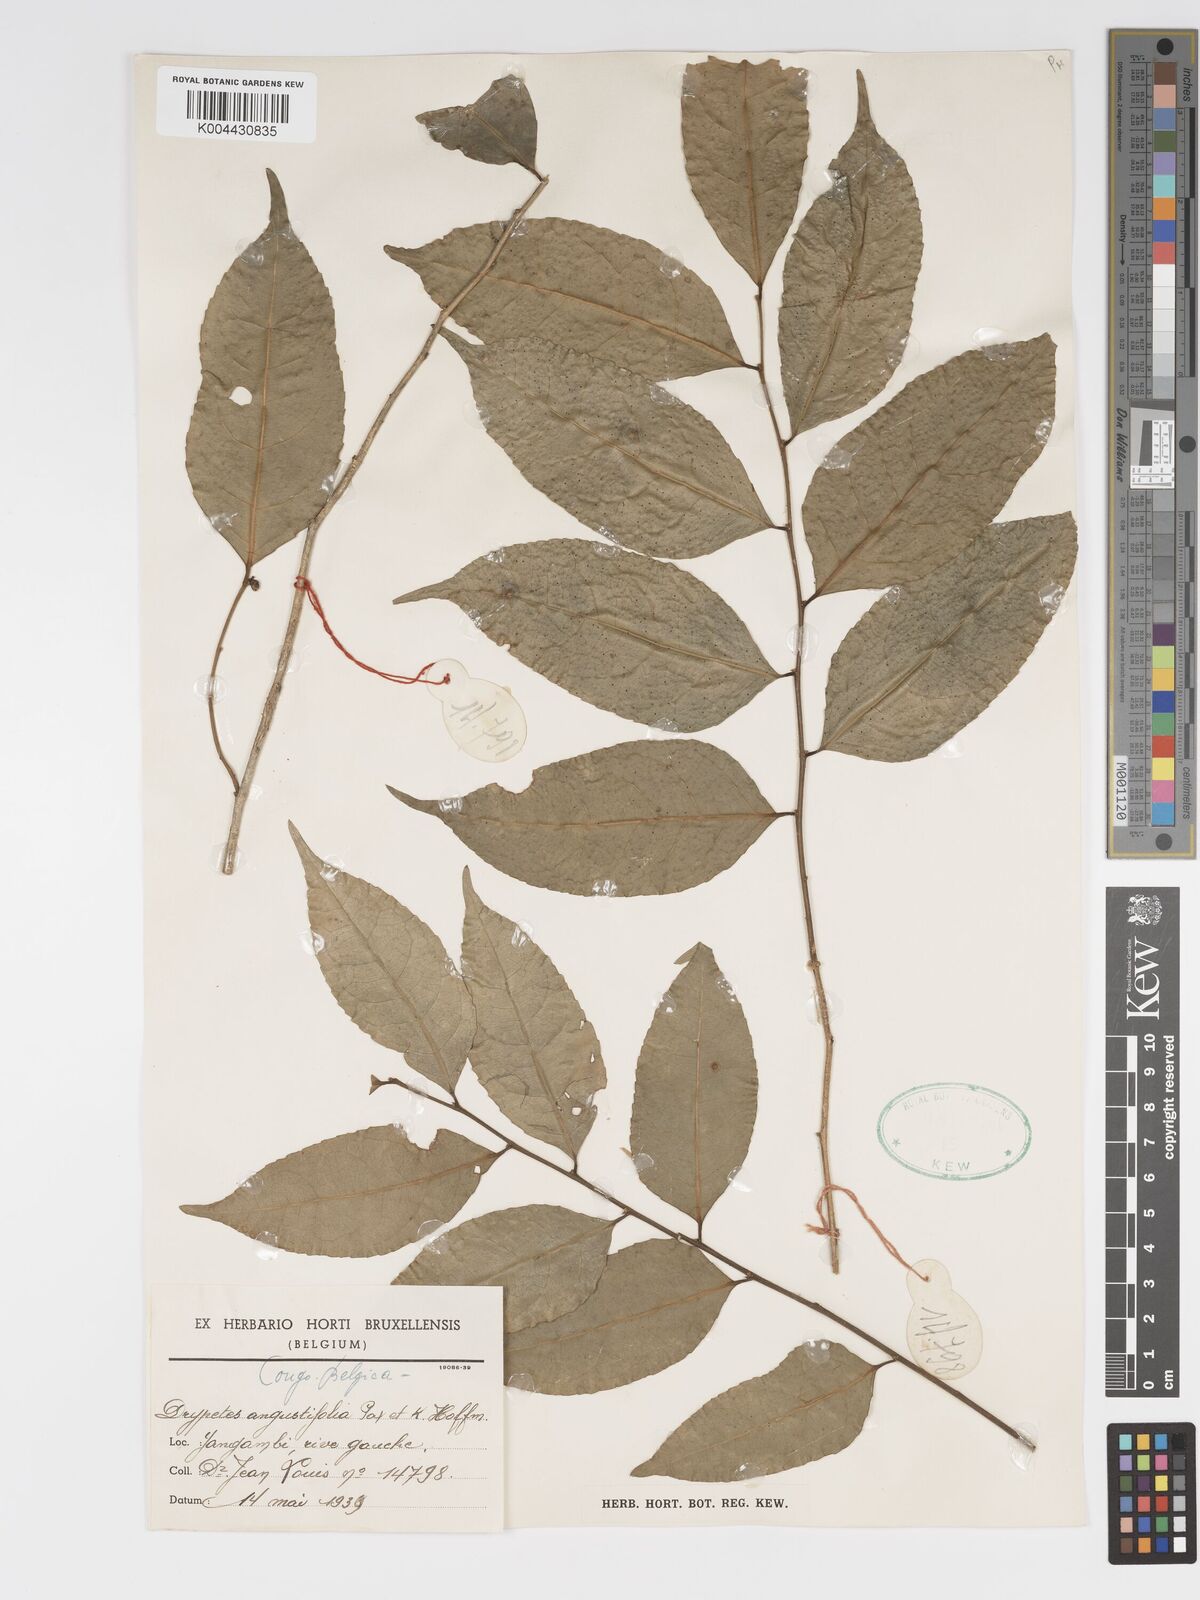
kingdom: Plantae
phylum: Tracheophyta
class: Magnoliopsida
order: Malpighiales
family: Putranjivaceae
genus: Drypetes
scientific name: Drypetes angustifolia
